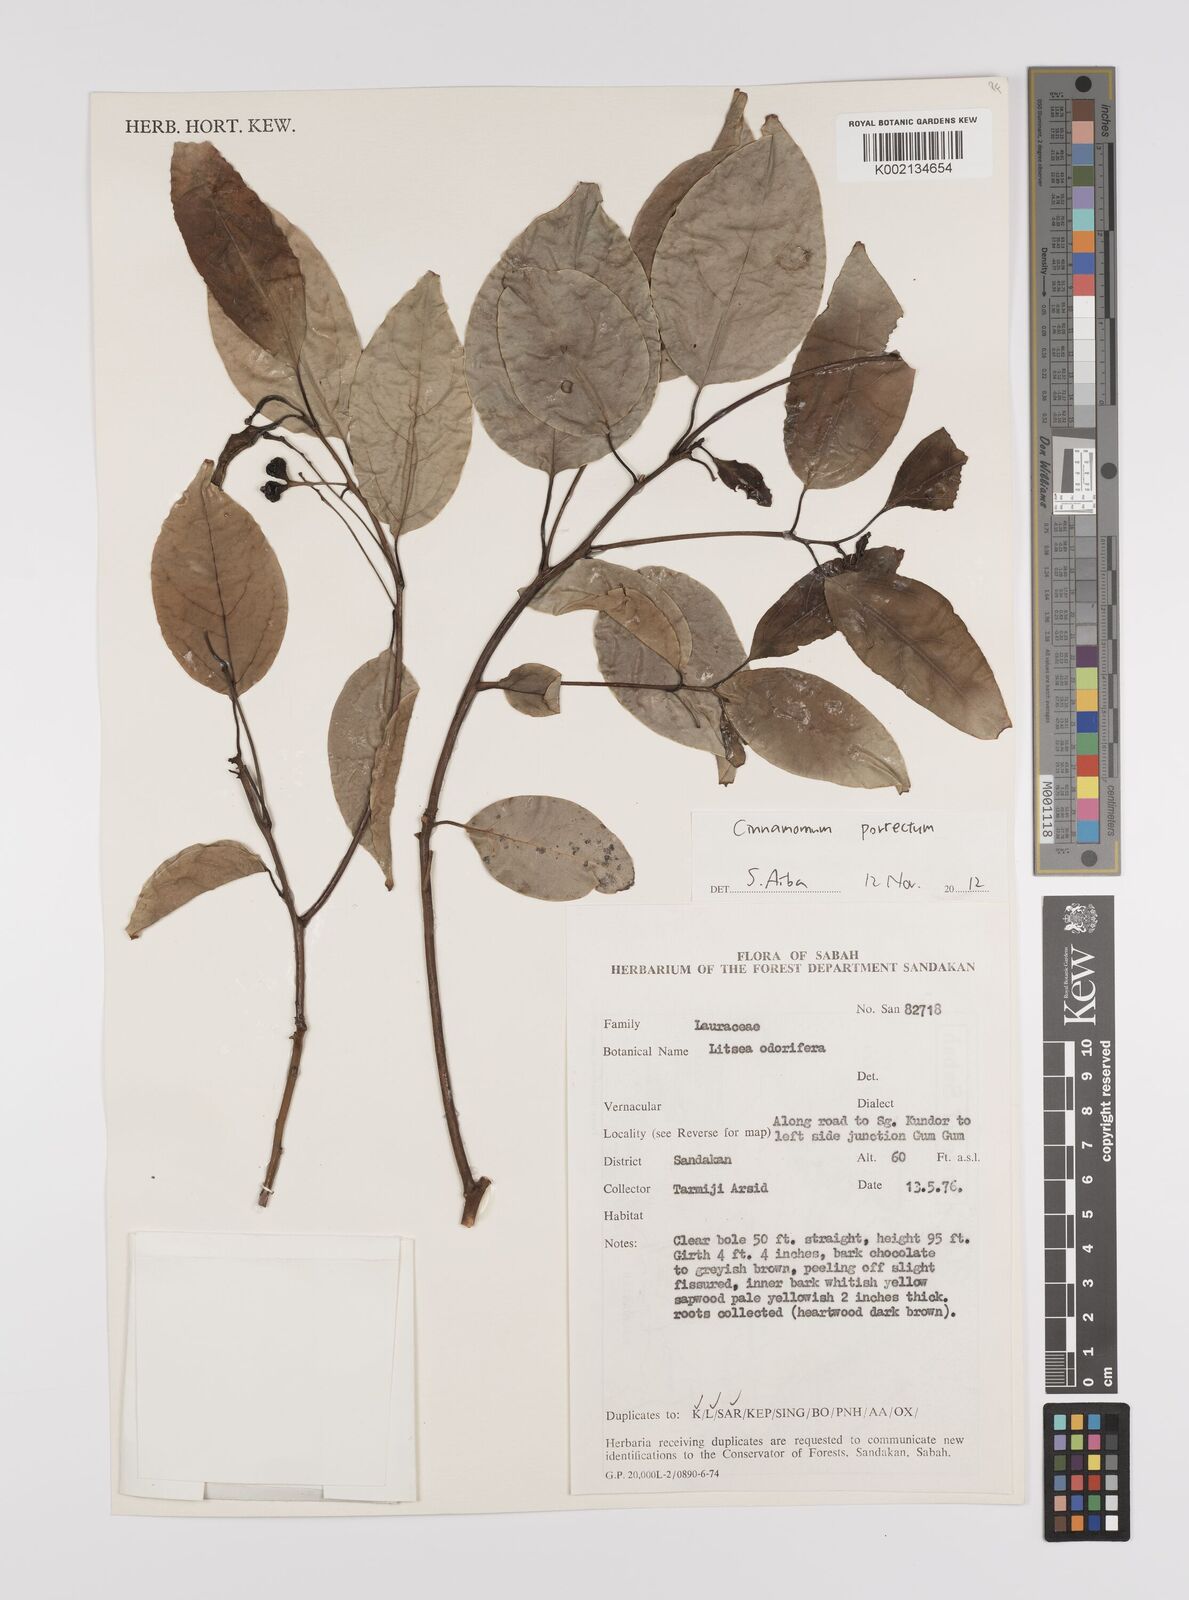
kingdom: Plantae
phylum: Tracheophyta
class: Magnoliopsida
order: Laurales
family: Lauraceae
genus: Cinnamomum
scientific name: Cinnamomum parthenoxylon
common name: Martaban camphor wood
